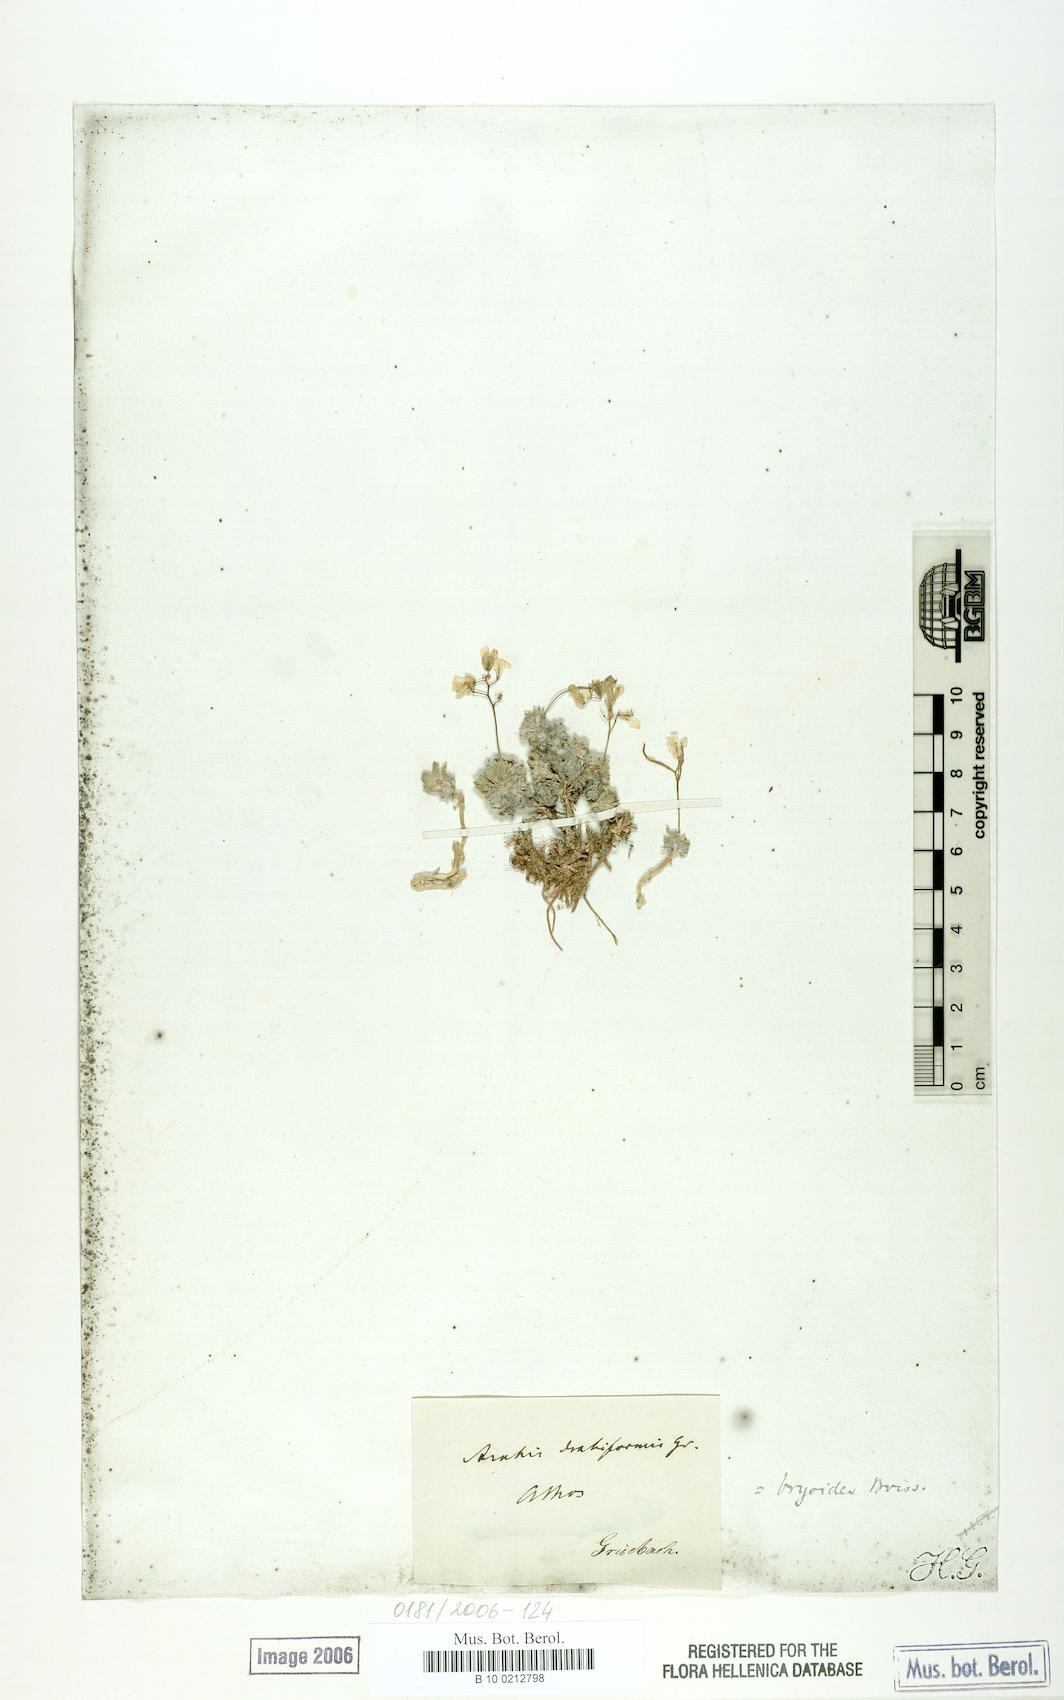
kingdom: Plantae
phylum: Tracheophyta
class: Magnoliopsida
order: Brassicales
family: Brassicaceae
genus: Arabis
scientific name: Arabis bryoides
